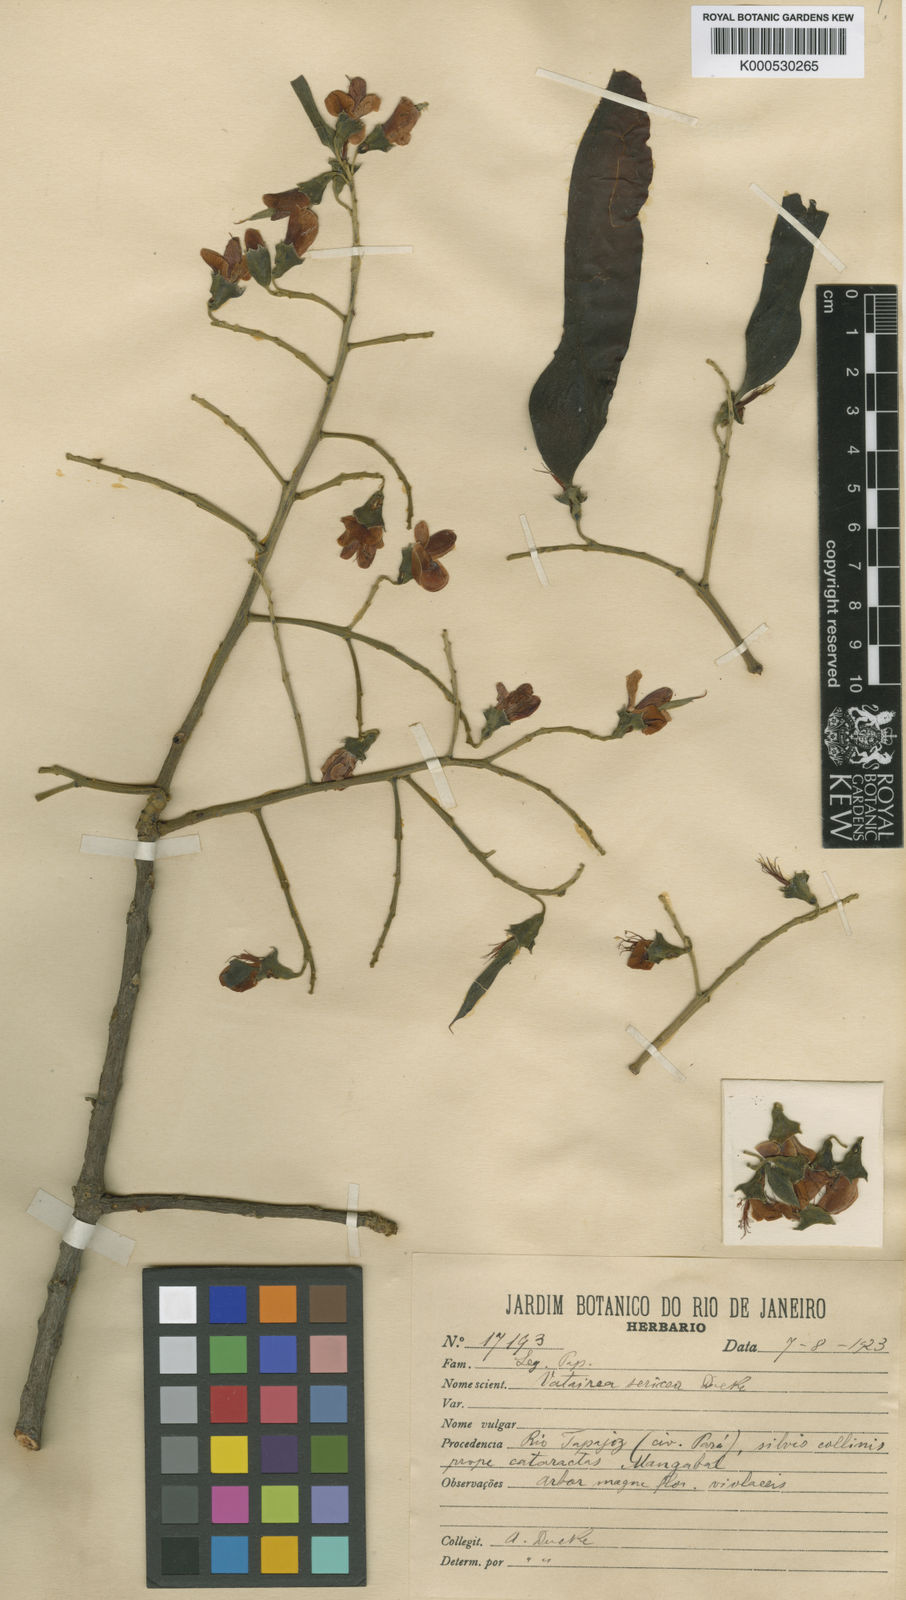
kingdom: Plantae
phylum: Tracheophyta
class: Magnoliopsida
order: Fabales
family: Fabaceae
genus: Vatairea
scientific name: Vatairea sericea
